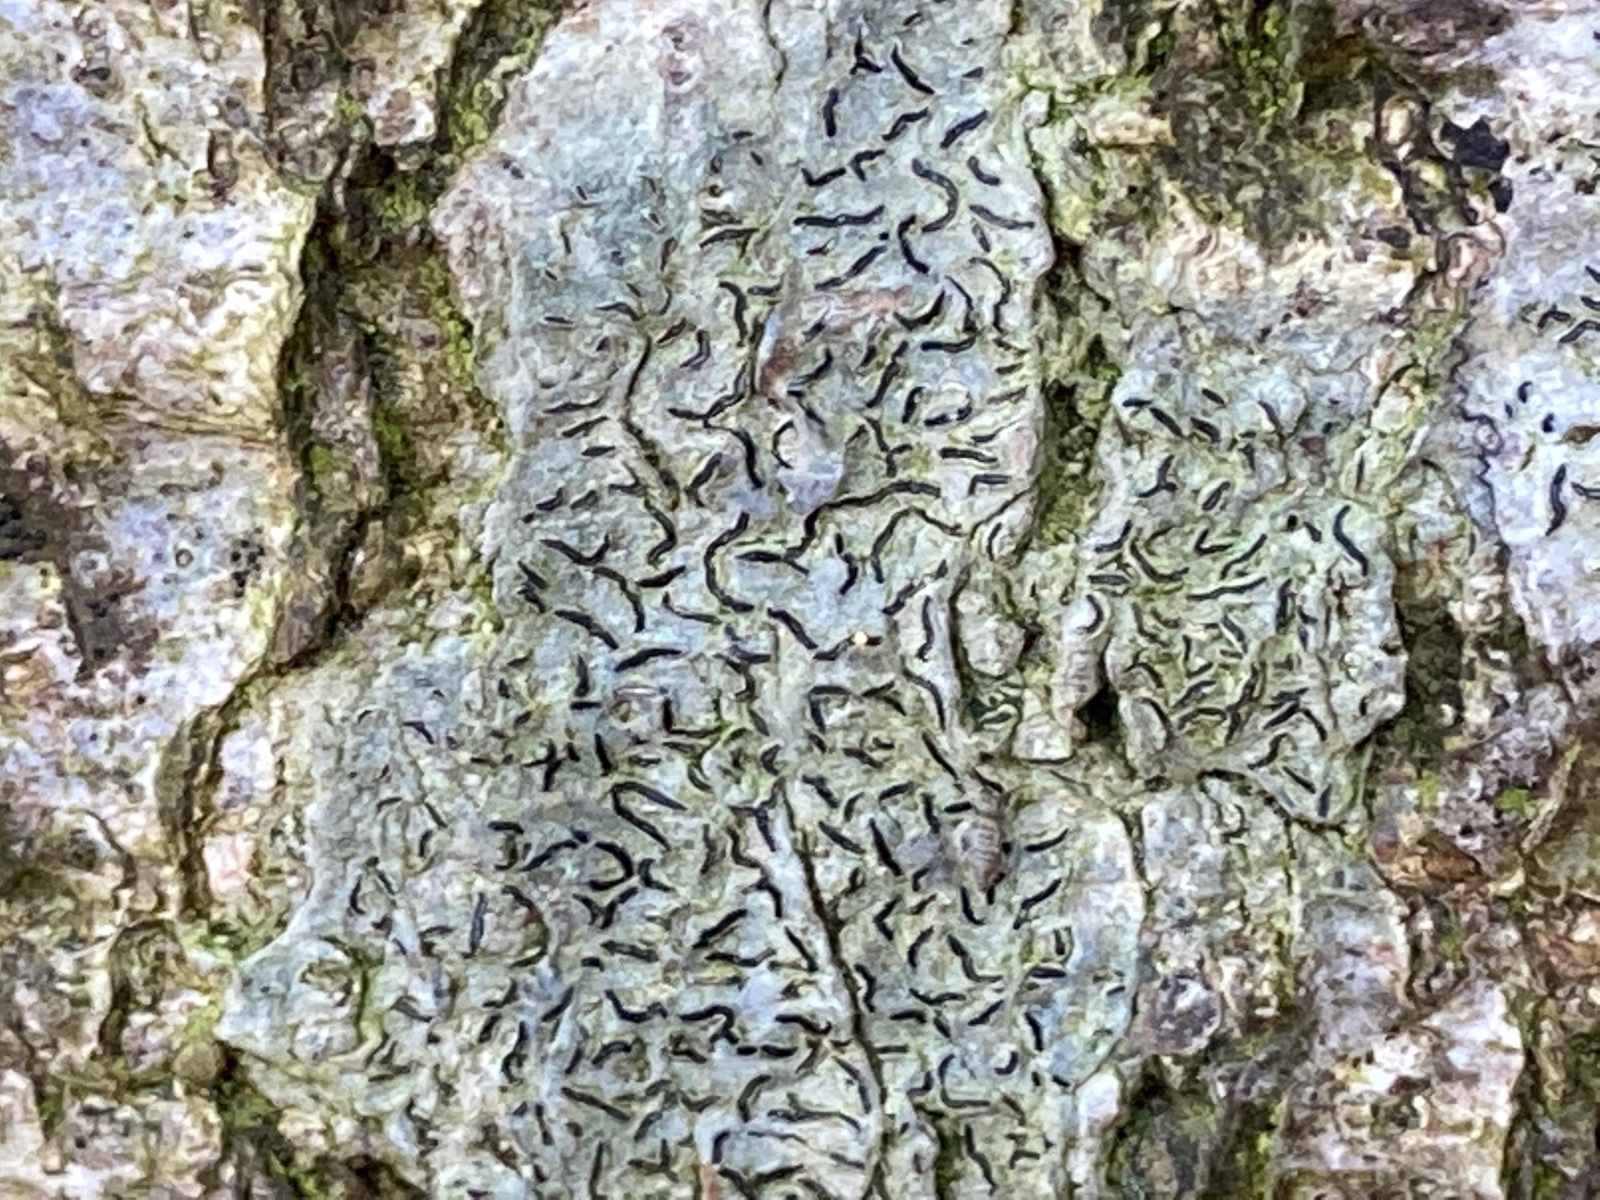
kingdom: Fungi
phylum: Ascomycota
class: Lecanoromycetes
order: Ostropales
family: Graphidaceae
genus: Graphis
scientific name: Graphis scripta
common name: almindelig skriftlav
